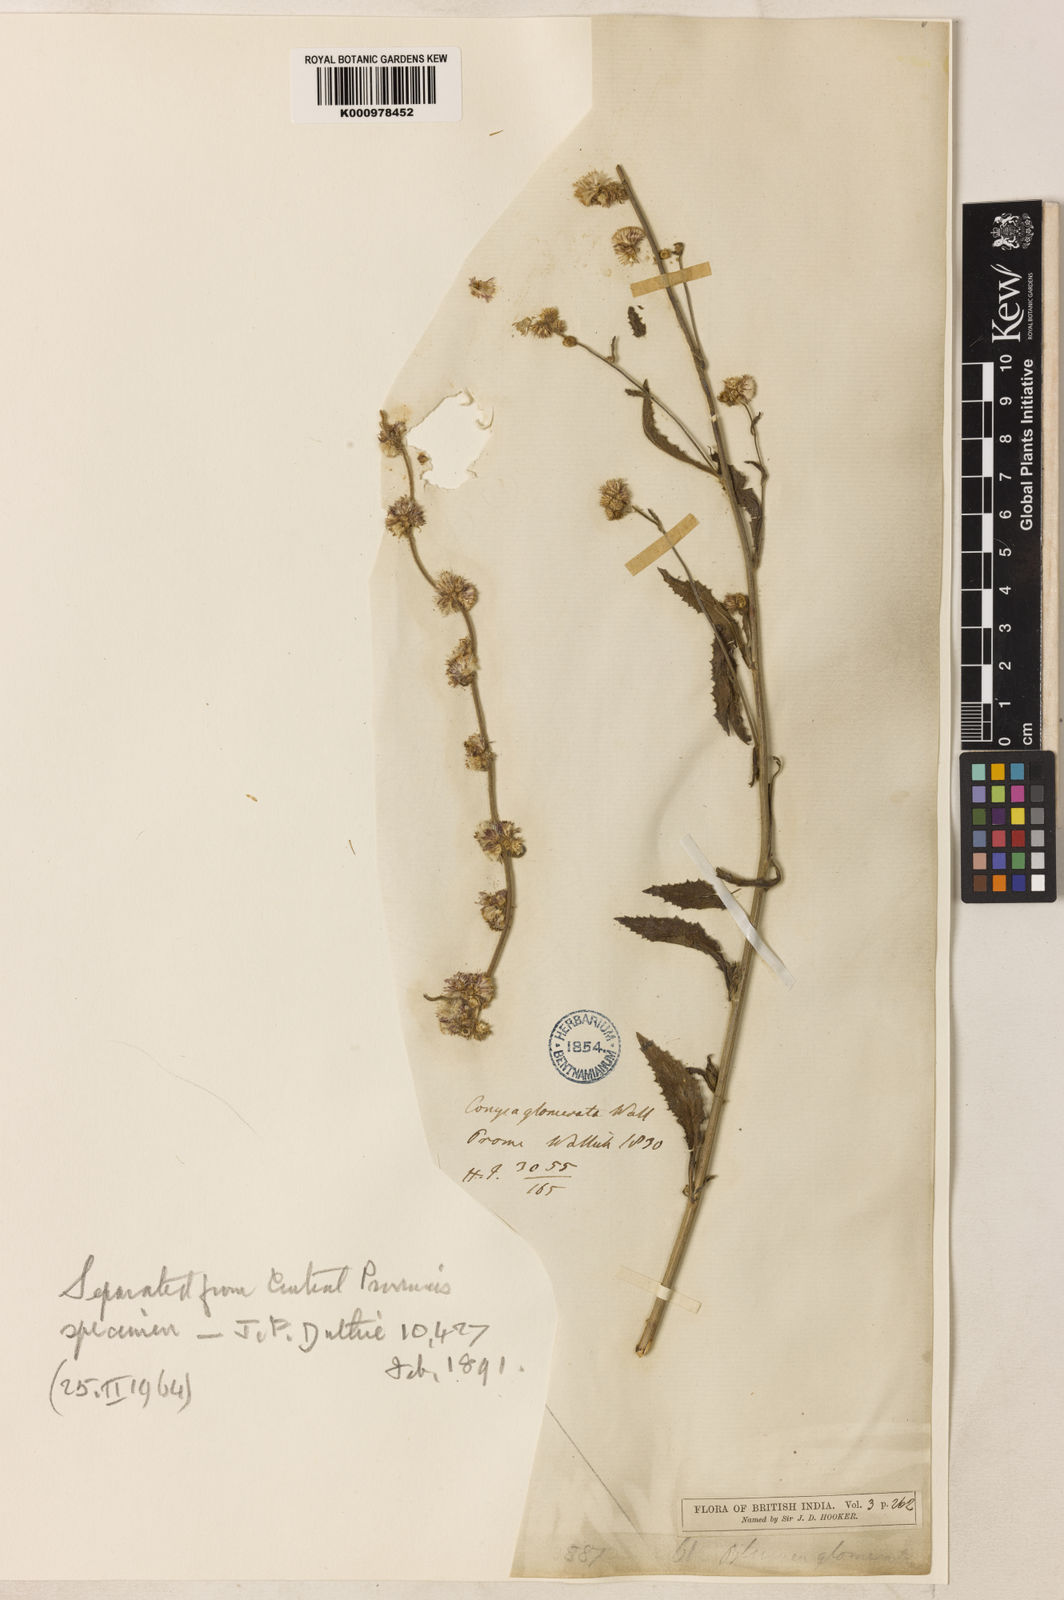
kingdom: Plantae
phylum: Tracheophyta
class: Magnoliopsida
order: Asterales
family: Asteraceae
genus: Blumea
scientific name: Blumea fistulosa
